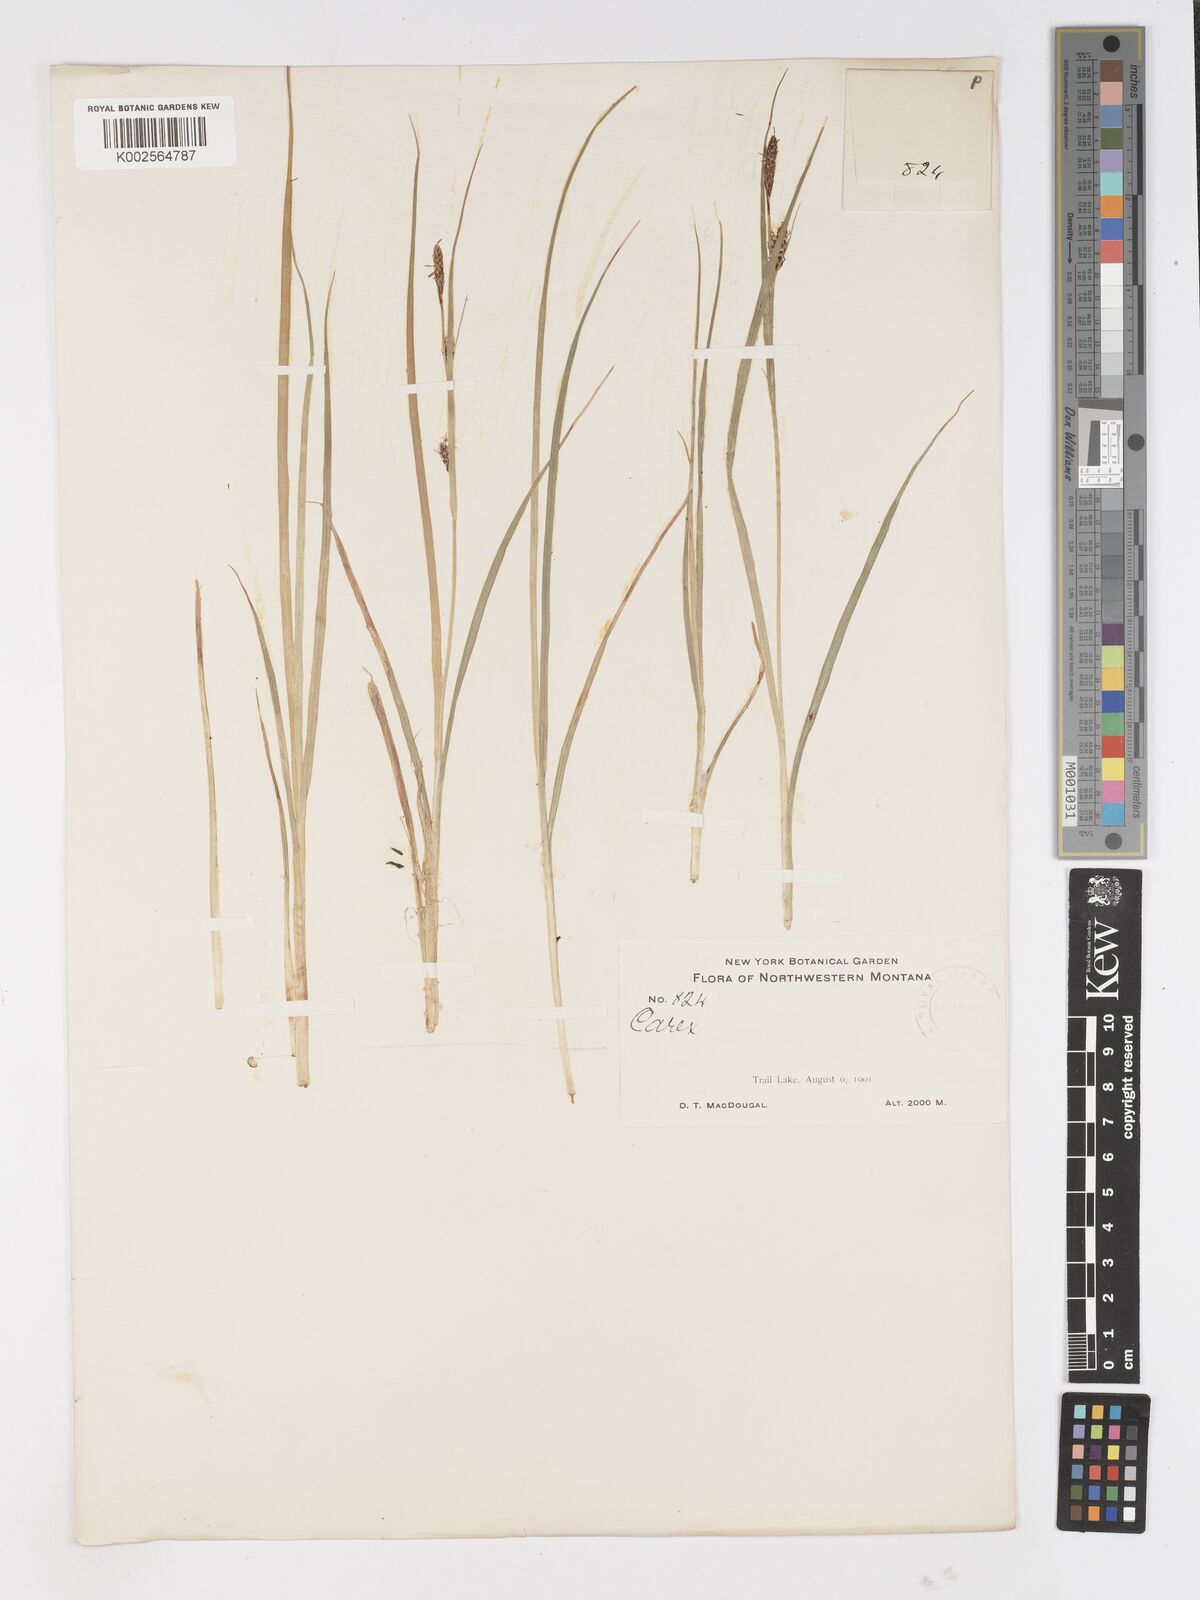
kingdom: Plantae
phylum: Tracheophyta
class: Liliopsida
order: Poales
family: Cyperaceae
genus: Carex
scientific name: Carex
